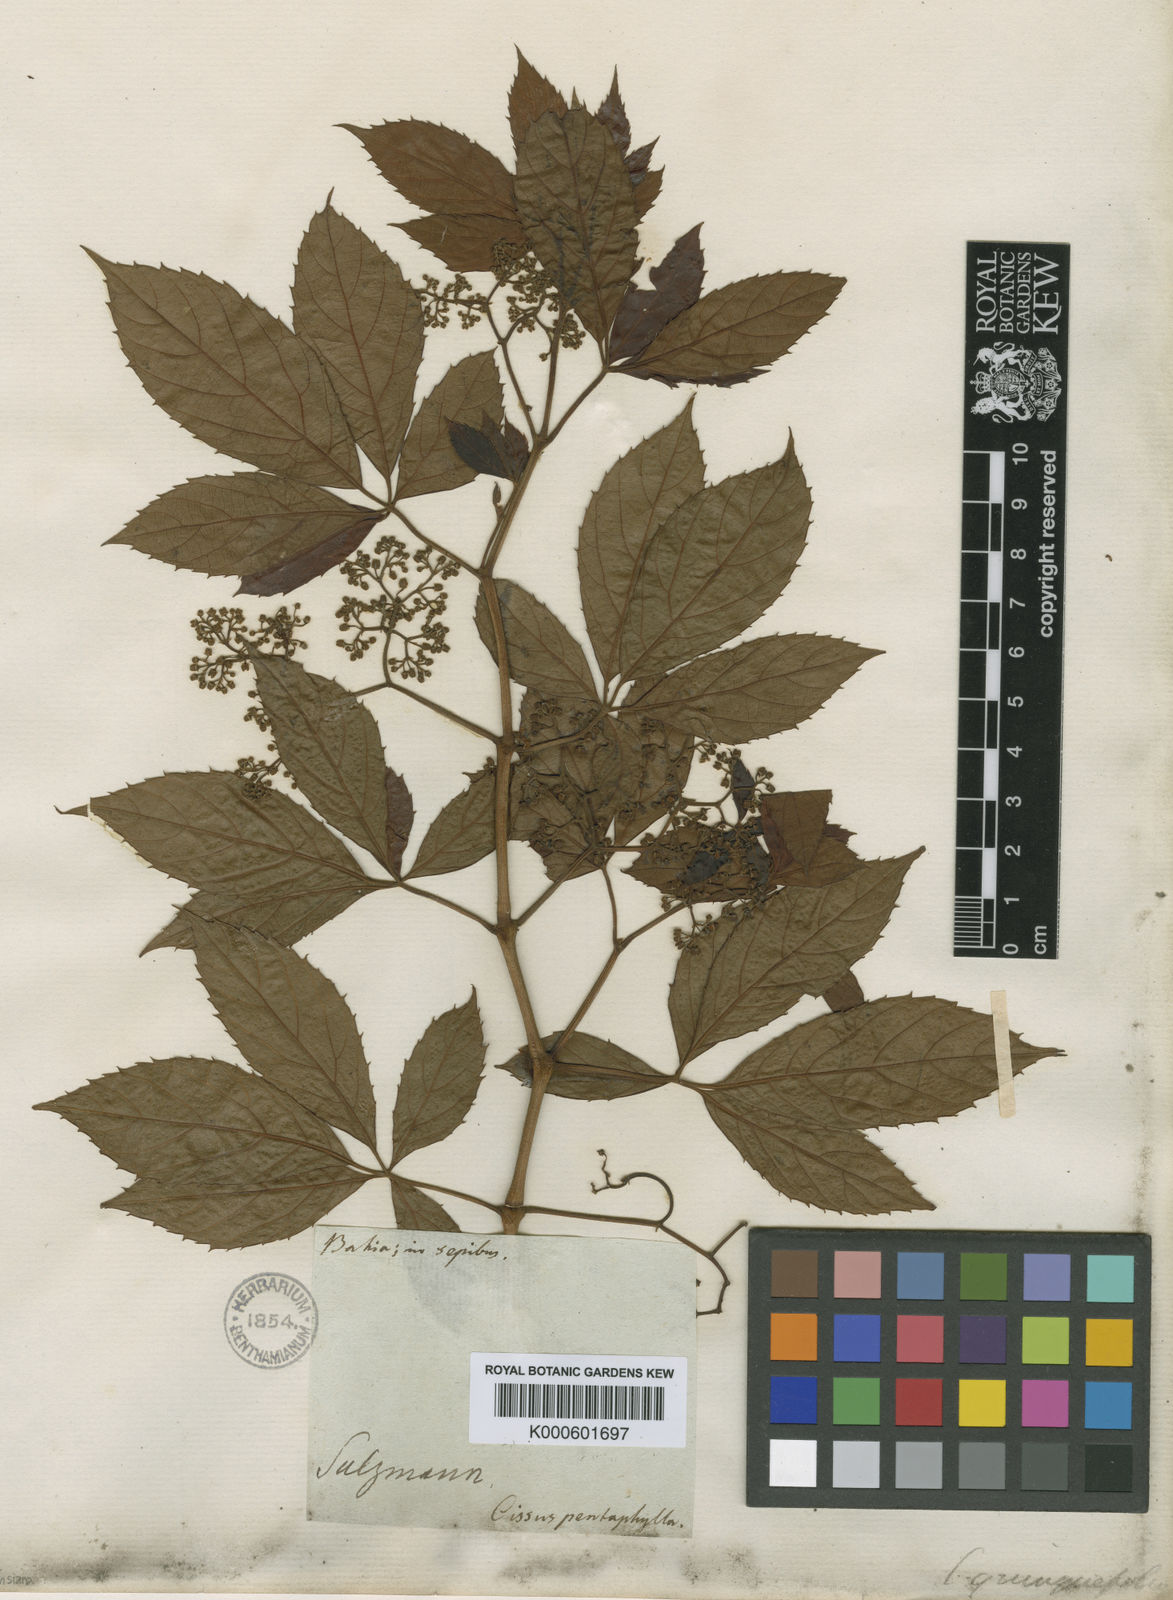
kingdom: Plantae
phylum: Tracheophyta
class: Magnoliopsida
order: Vitales
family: Vitaceae
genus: Clematicissus
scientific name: Clematicissus simsiana
